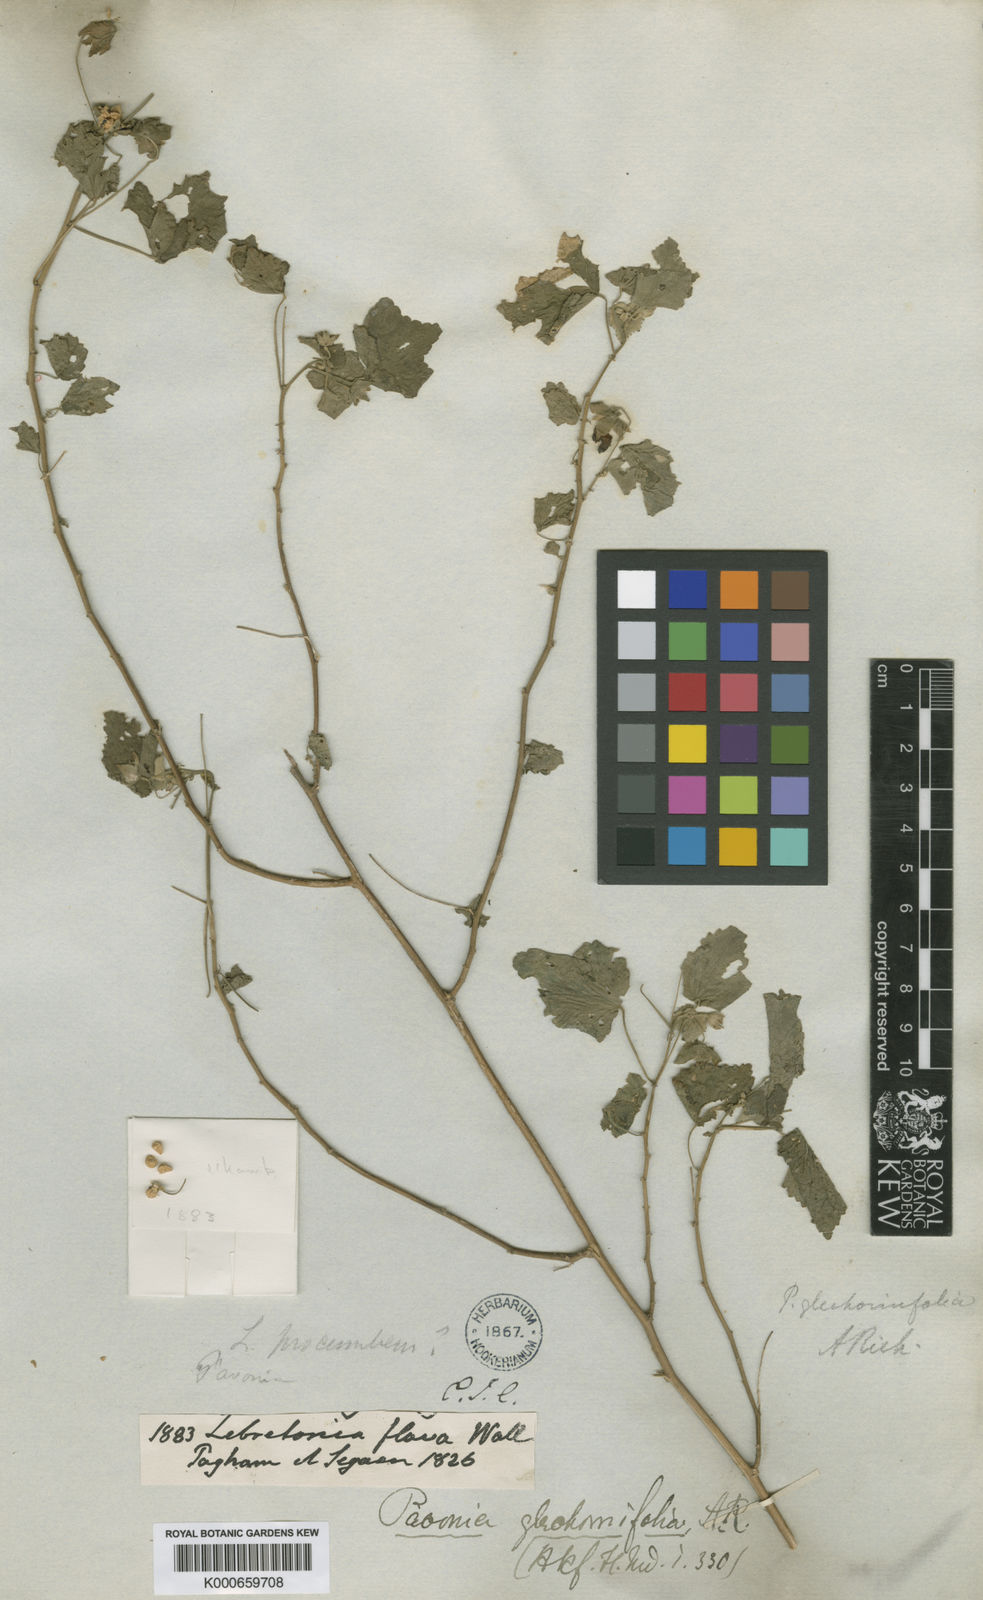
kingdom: Plantae
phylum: Tracheophyta
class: Magnoliopsida
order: Malvales
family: Malvaceae
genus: Pavonia
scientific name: Pavonia cancellata
